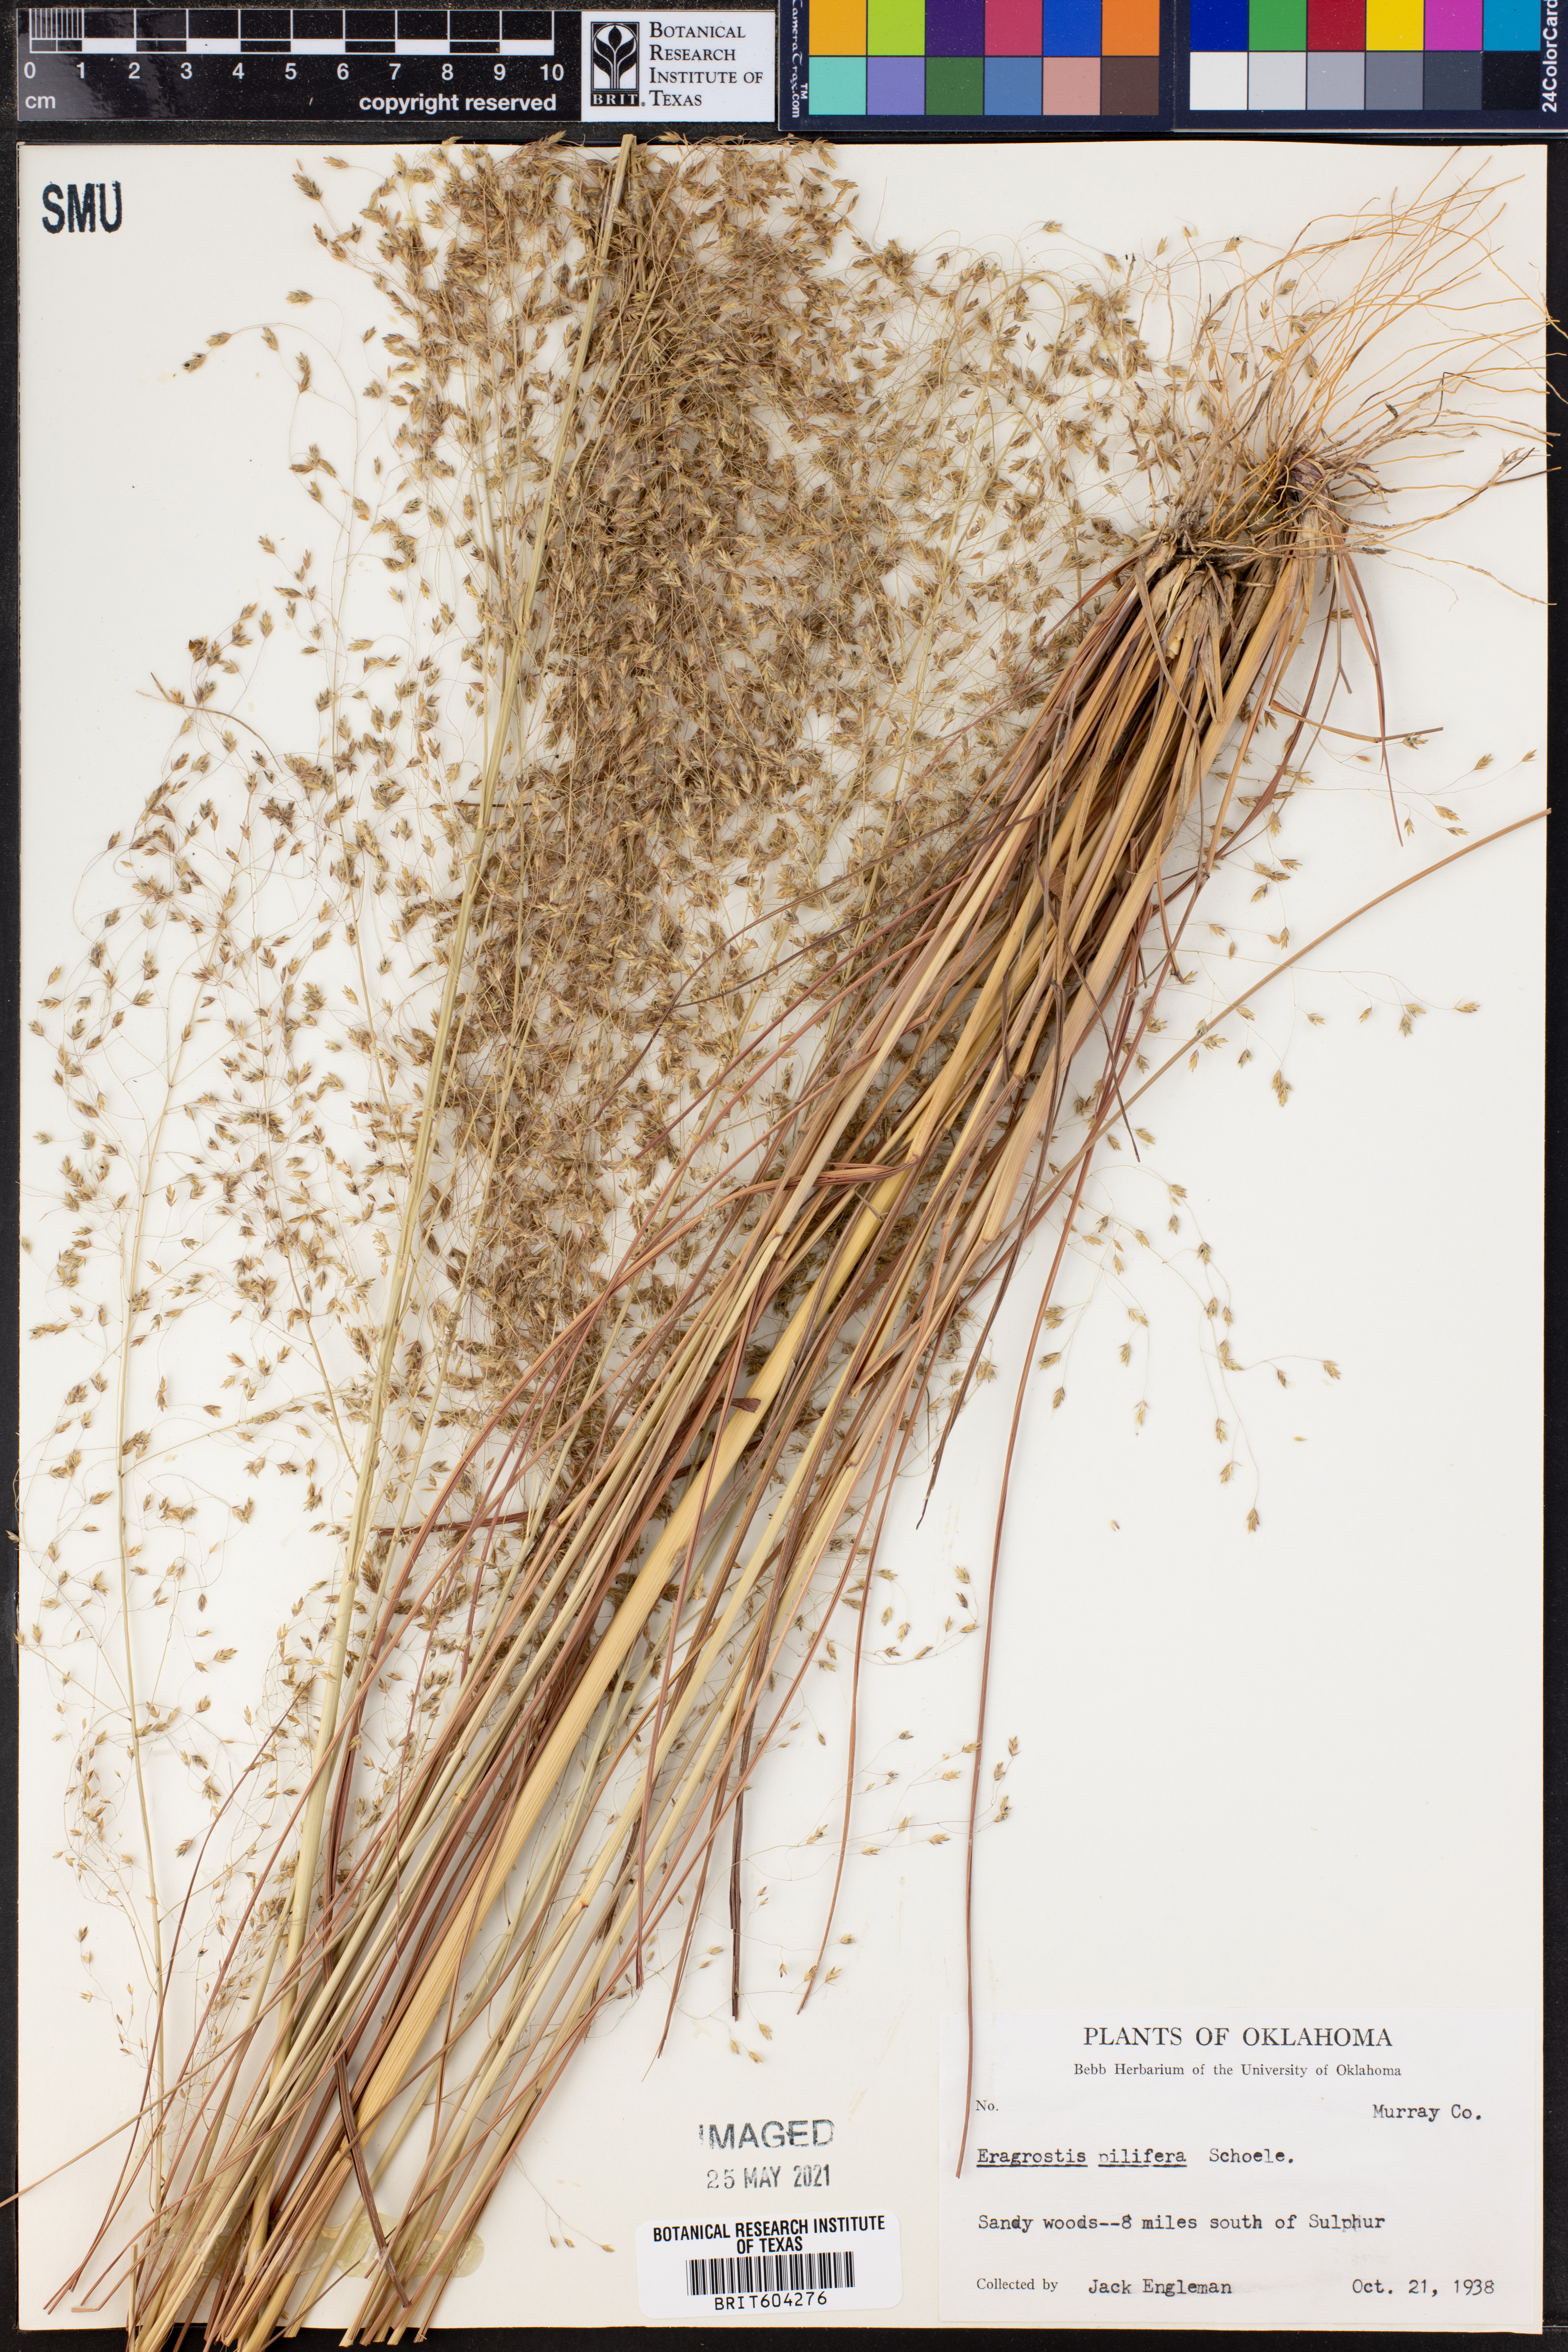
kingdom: Plantae
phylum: Tracheophyta
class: Liliopsida
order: Poales
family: Poaceae
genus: Eragrostis
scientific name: Eragrostis trichodes
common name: Sand love grass
